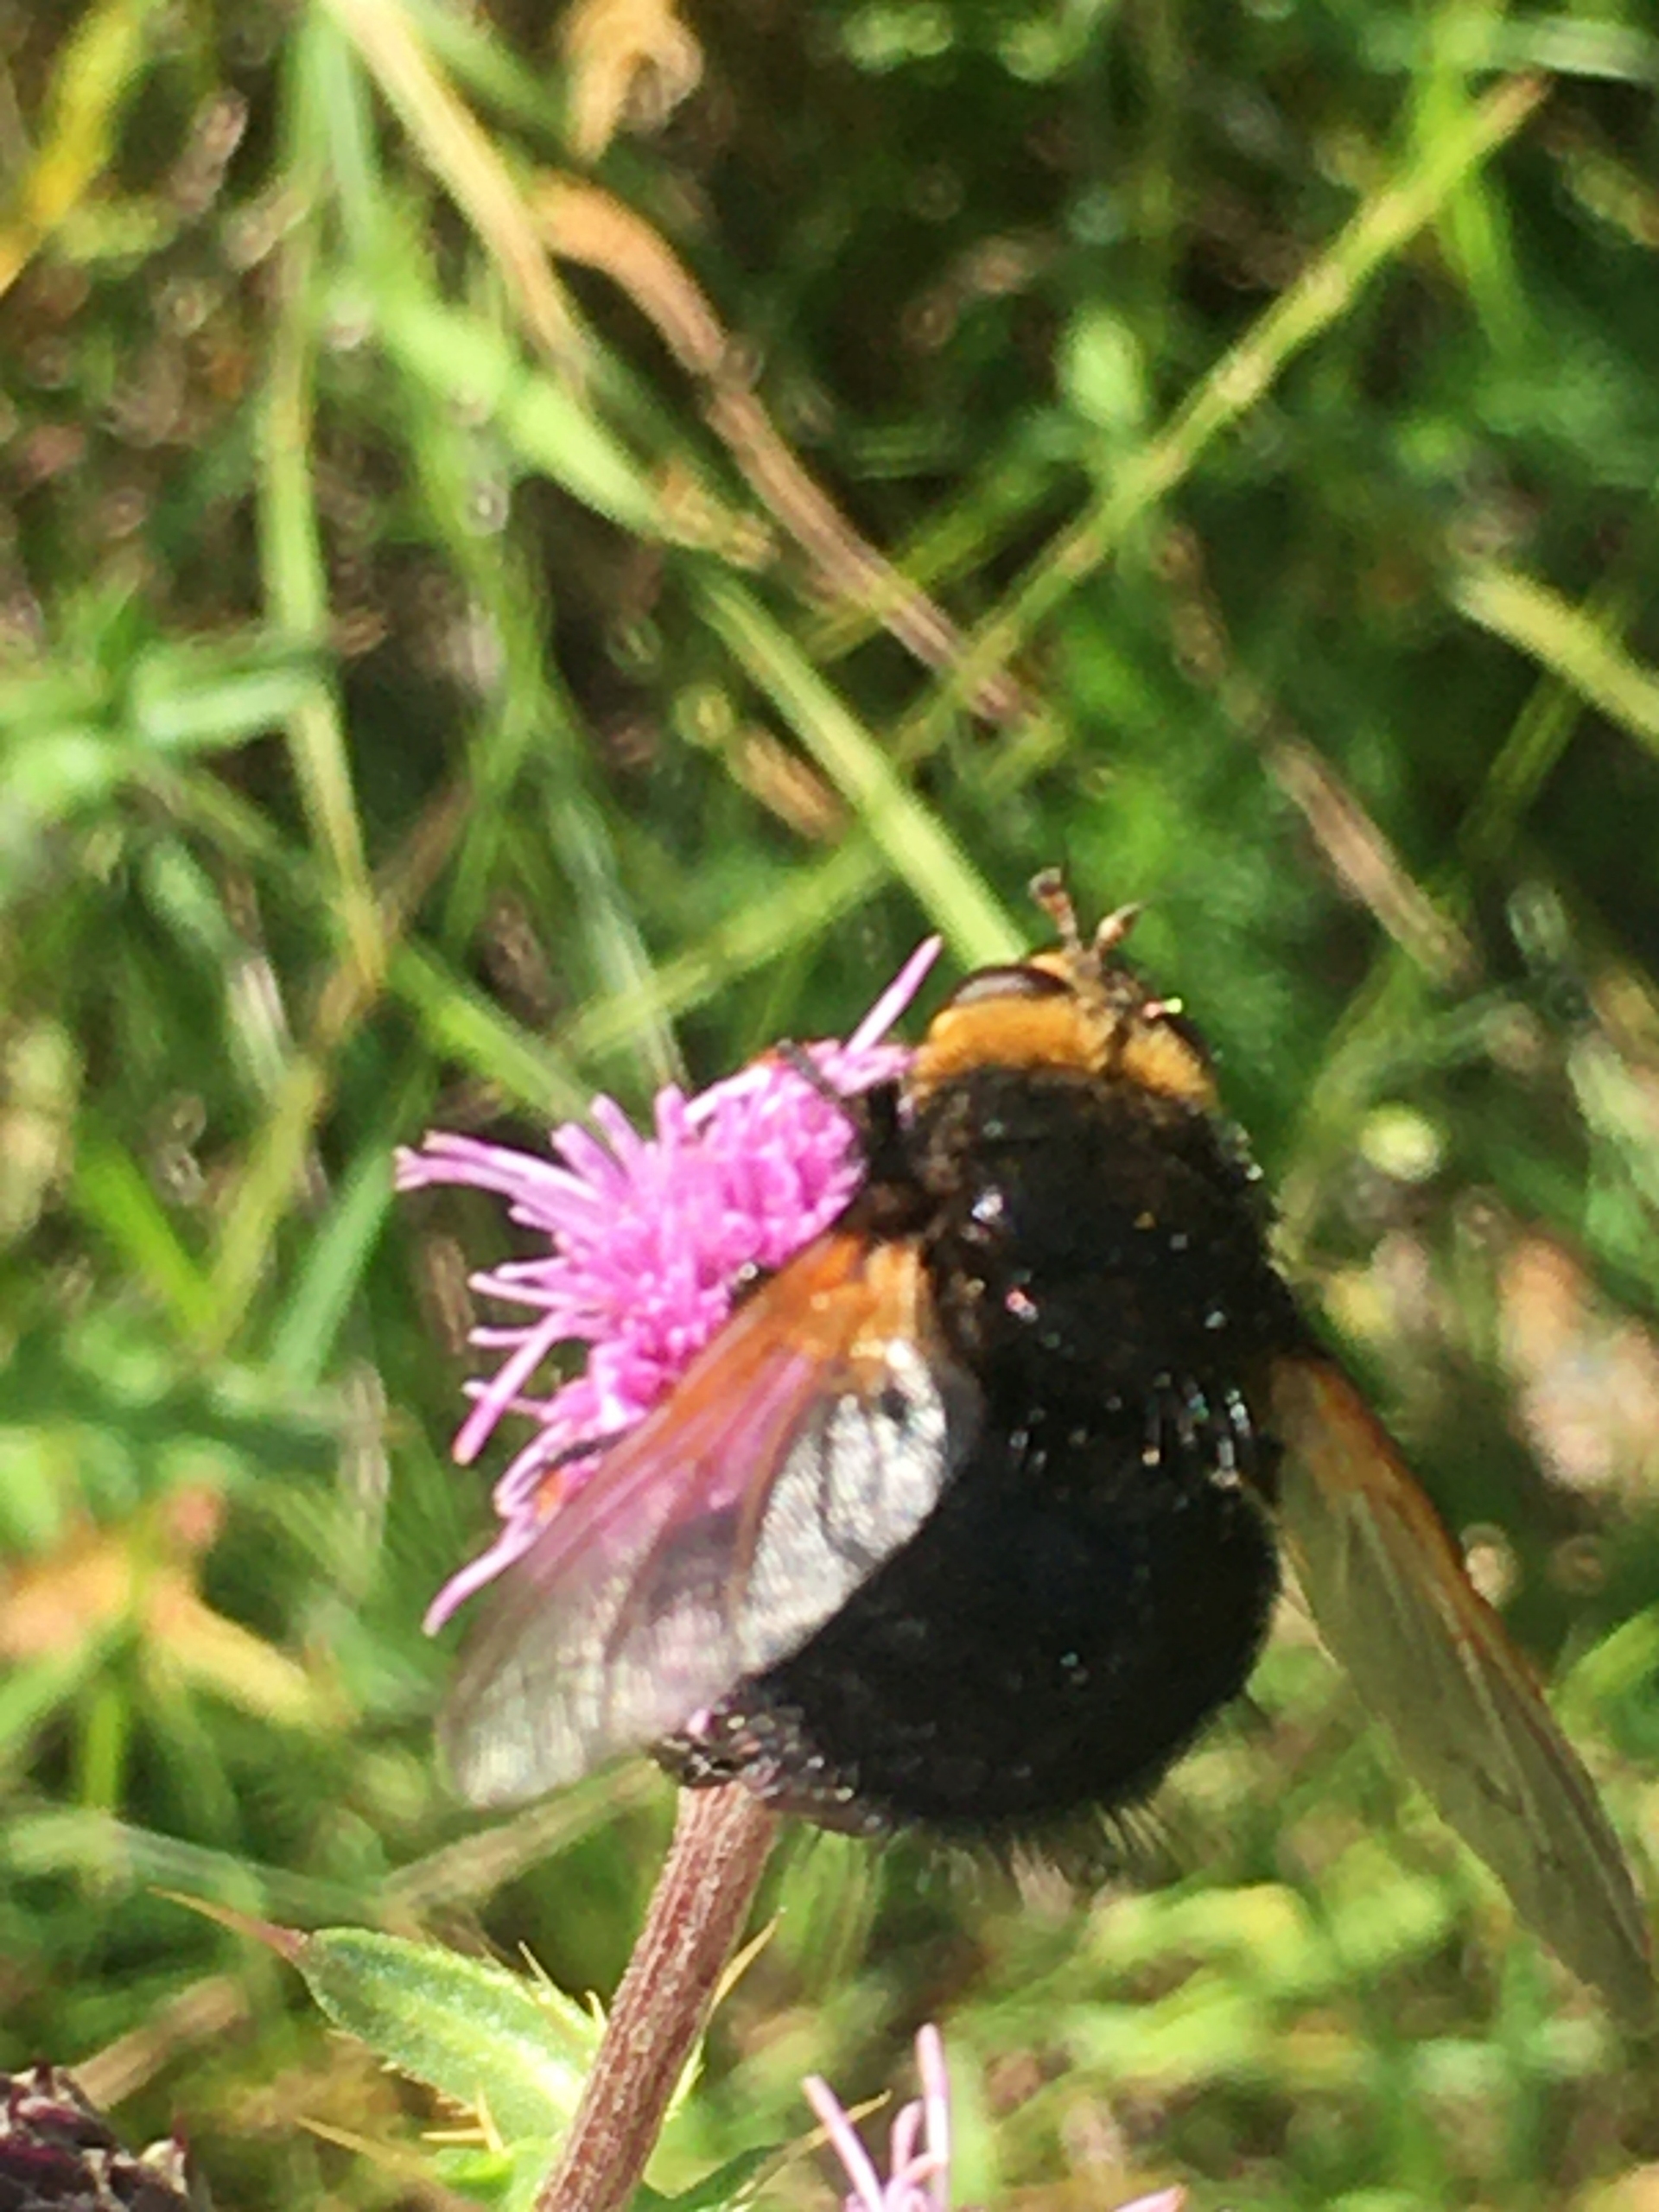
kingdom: Animalia
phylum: Arthropoda
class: Insecta
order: Diptera
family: Tachinidae
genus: Tachina
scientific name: Tachina grossa
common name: Kæmpefluen Harald
